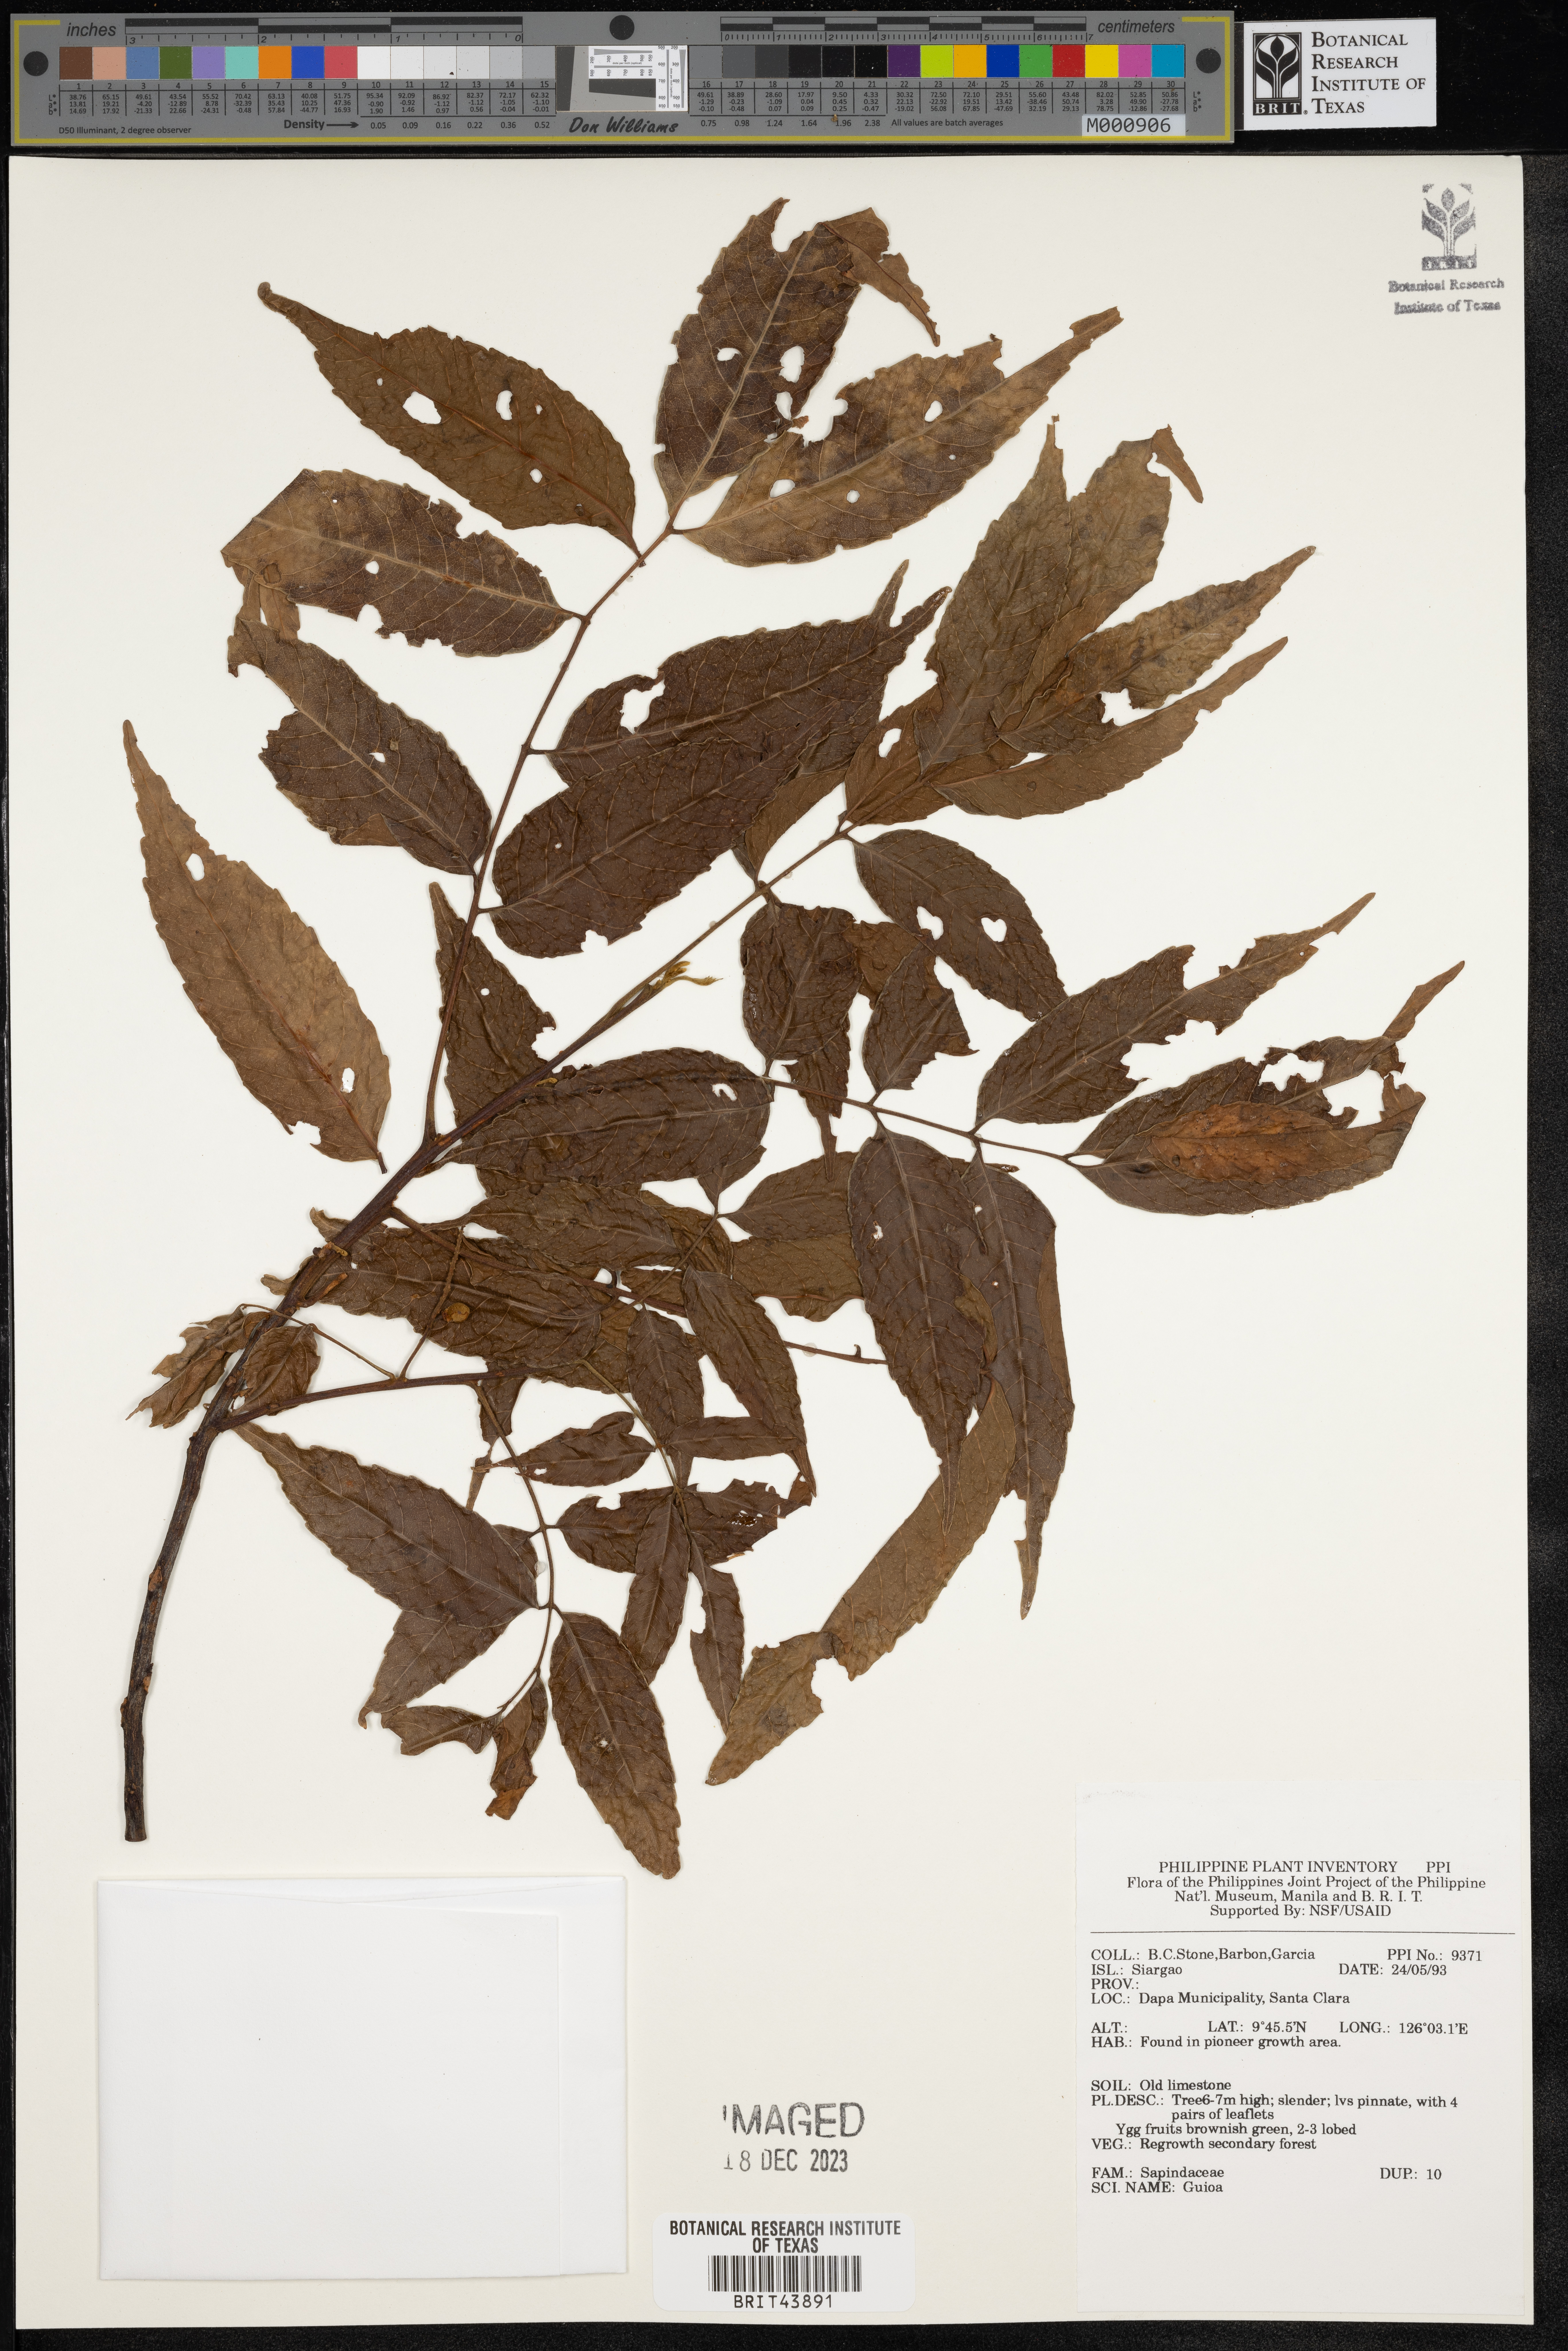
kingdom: Plantae
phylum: Tracheophyta
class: Magnoliopsida
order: Sapindales
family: Sapindaceae
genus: Guioa
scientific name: Guioa
